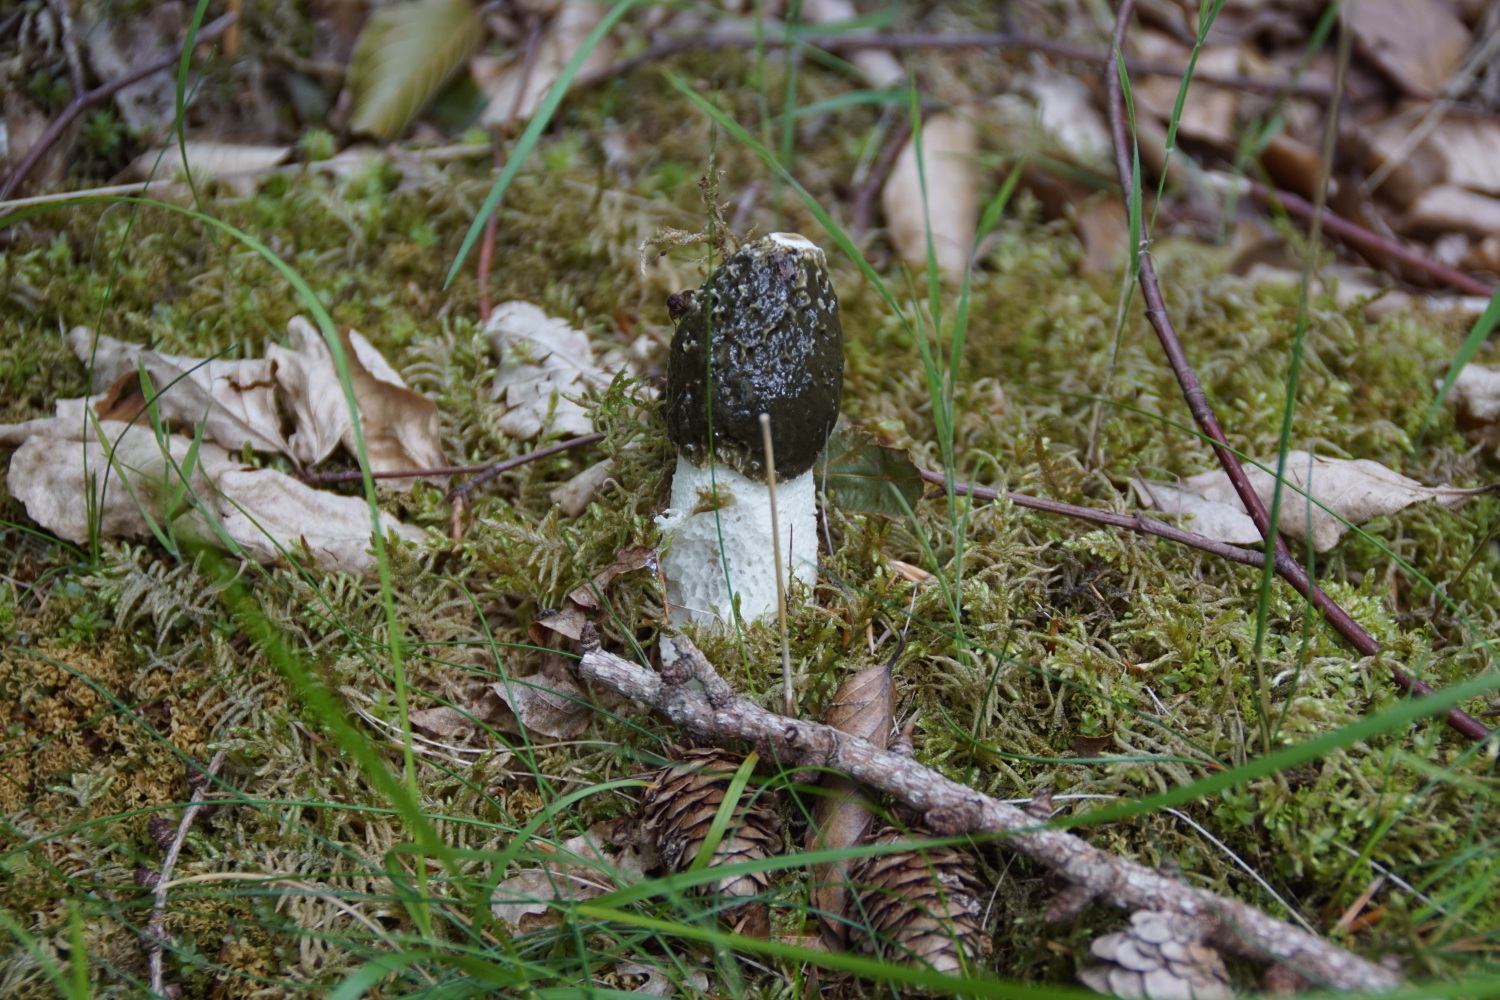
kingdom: Fungi
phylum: Basidiomycota
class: Agaricomycetes
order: Phallales
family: Phallaceae
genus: Phallus
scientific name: Phallus impudicus
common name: almindelig stinksvamp
